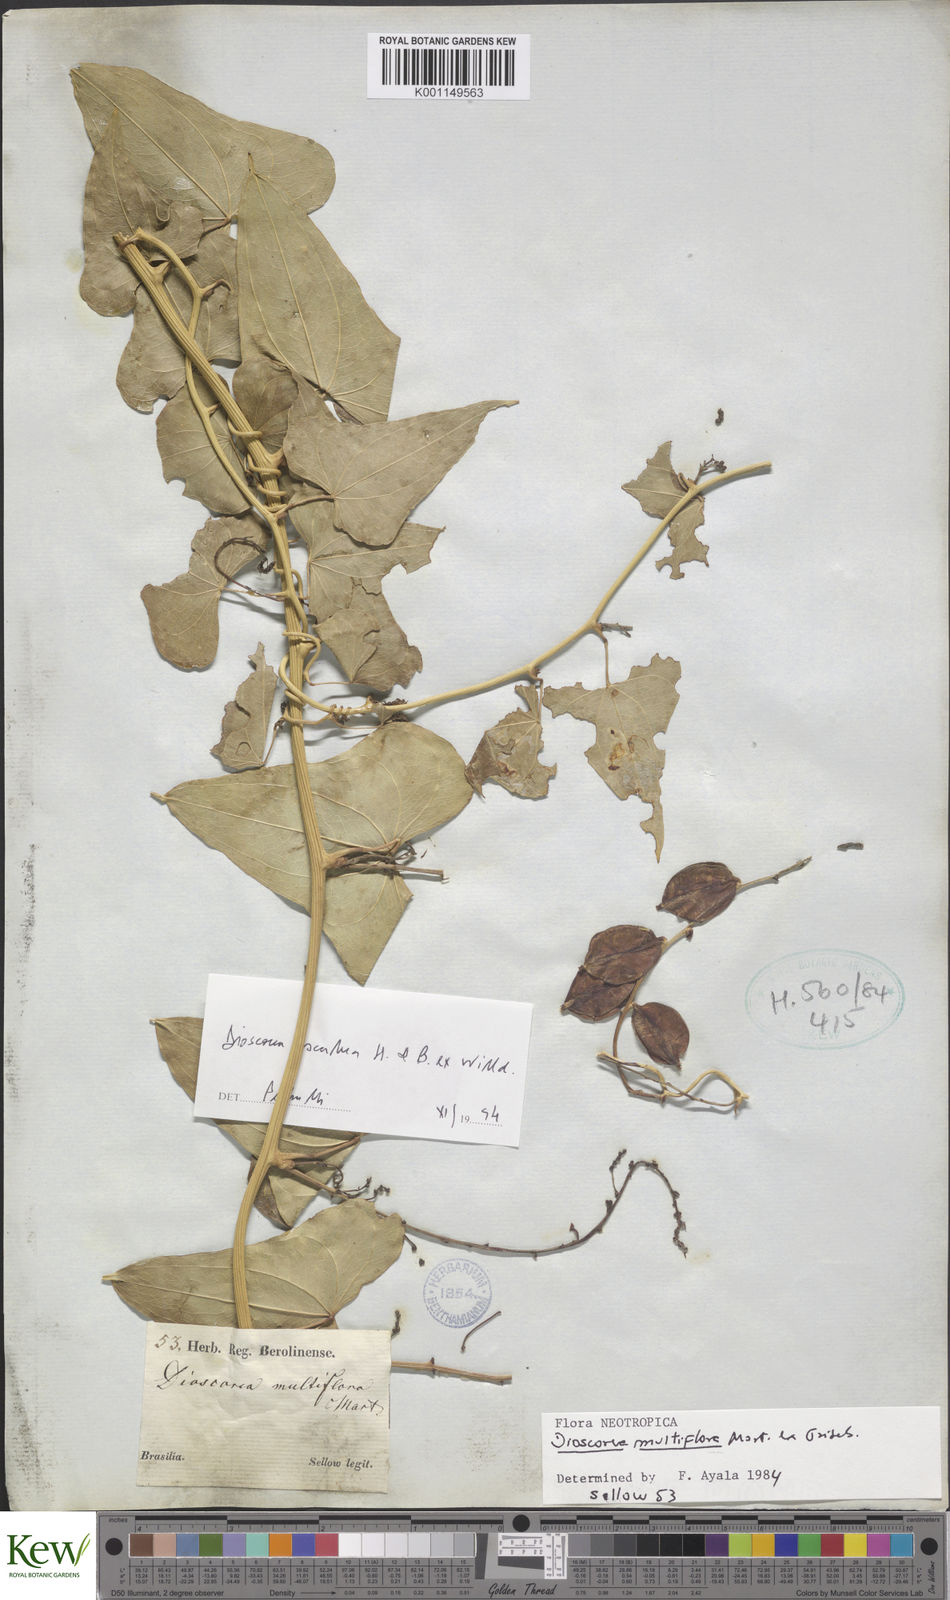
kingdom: Plantae
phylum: Tracheophyta
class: Liliopsida
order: Dioscoreales
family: Dioscoreaceae
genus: Dioscorea
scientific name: Dioscorea multiflora
